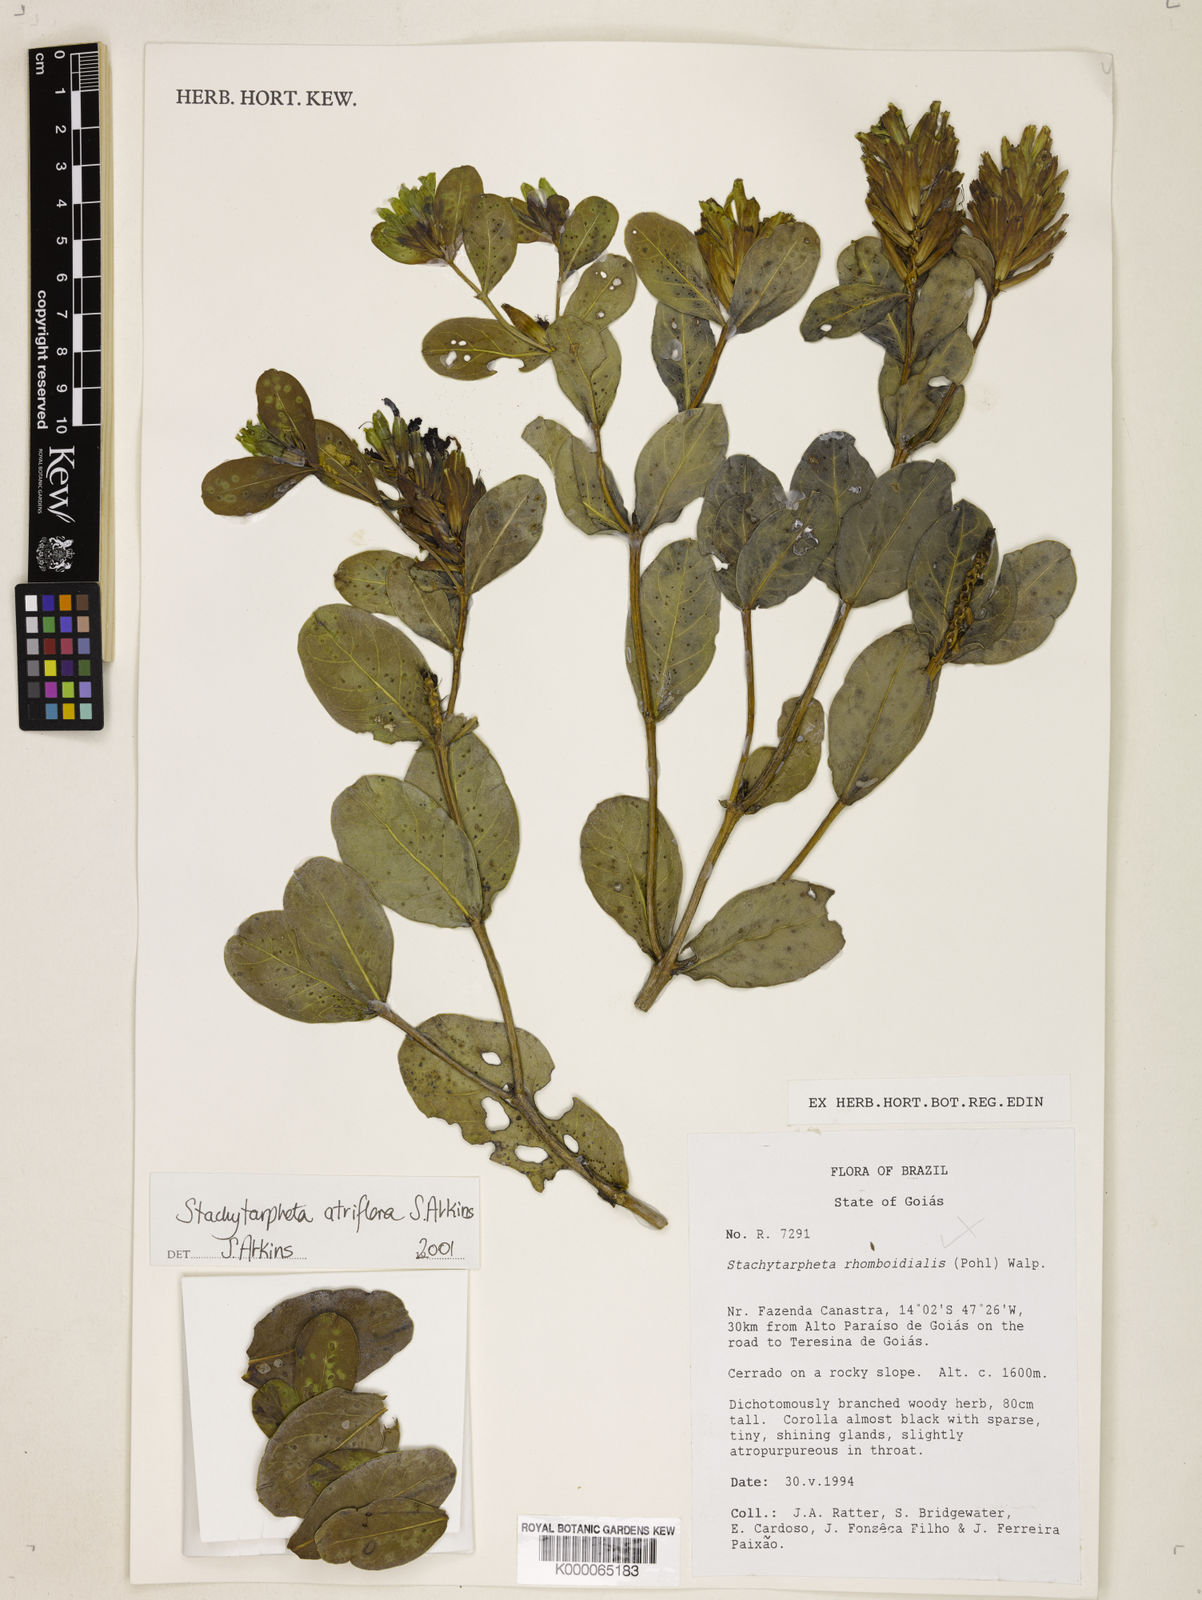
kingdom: Plantae
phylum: Tracheophyta
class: Magnoliopsida
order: Lamiales
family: Verbenaceae
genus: Stachytarpheta
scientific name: Stachytarpheta glauca
